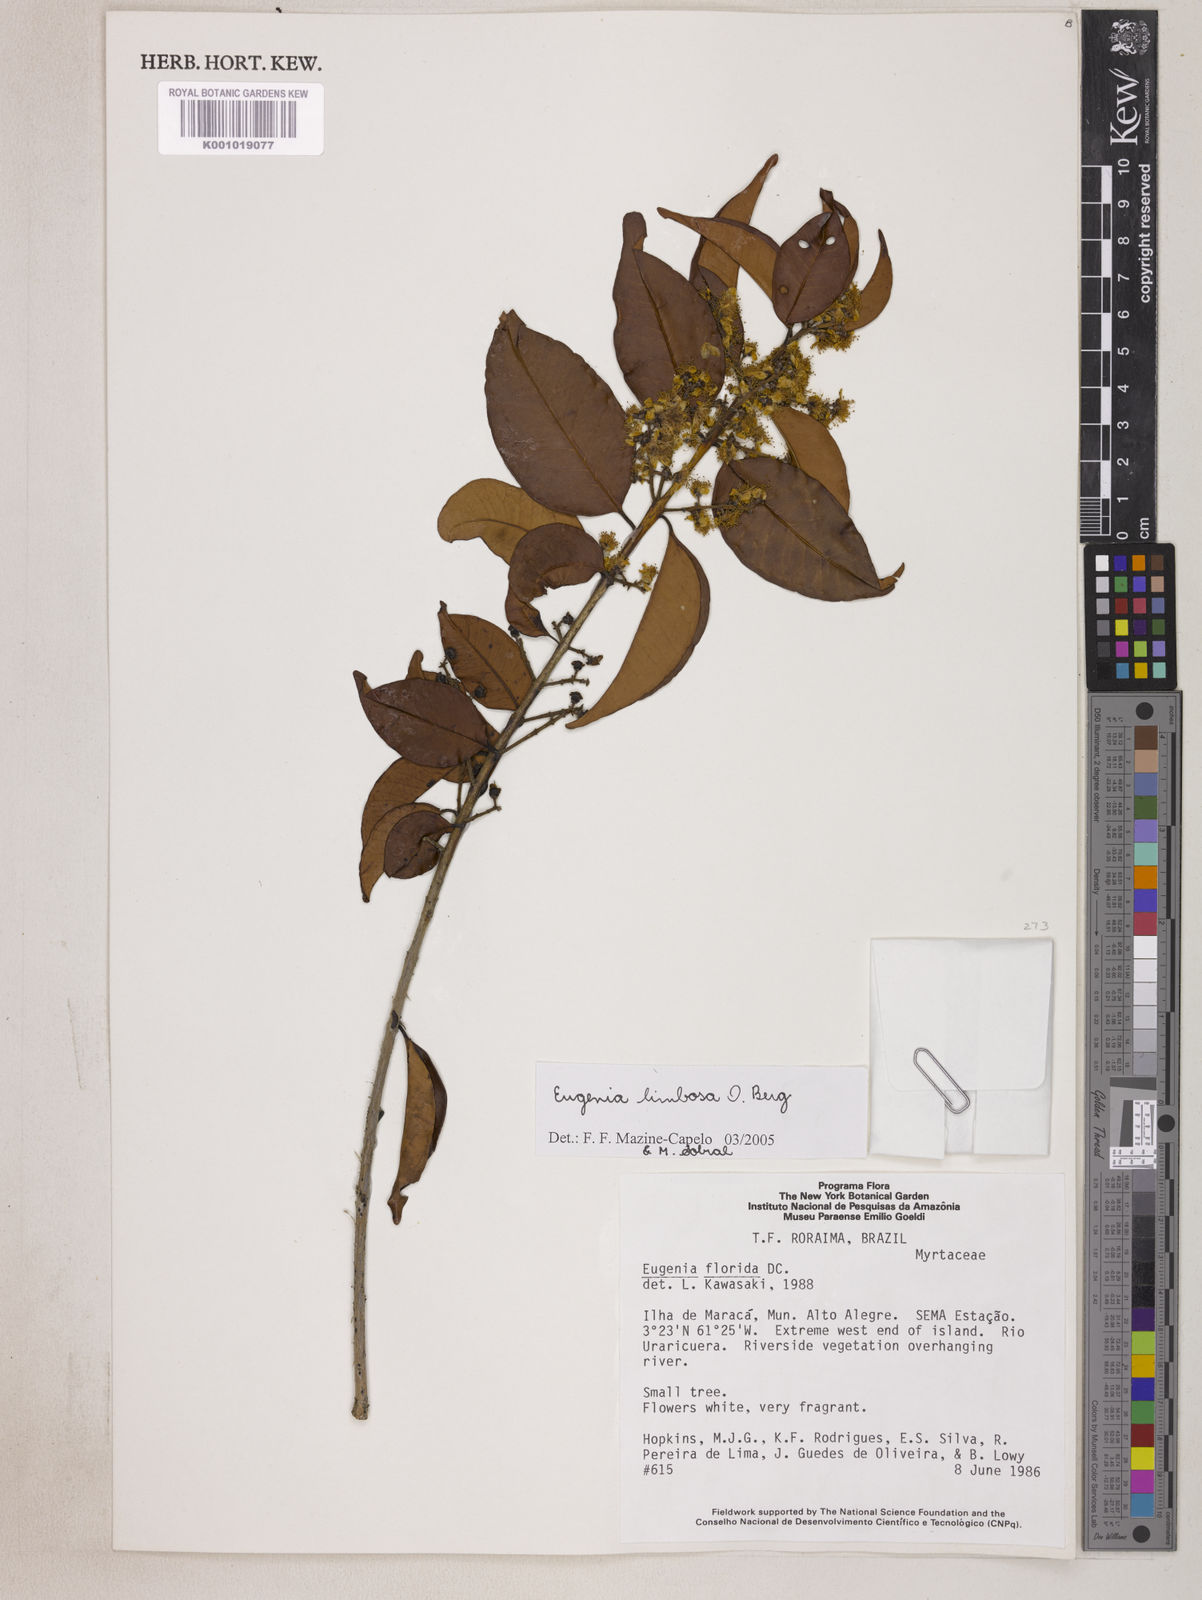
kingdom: Plantae
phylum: Tracheophyta
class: Magnoliopsida
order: Myrtales
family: Myrtaceae
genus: Eugenia
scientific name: Eugenia limbosa
